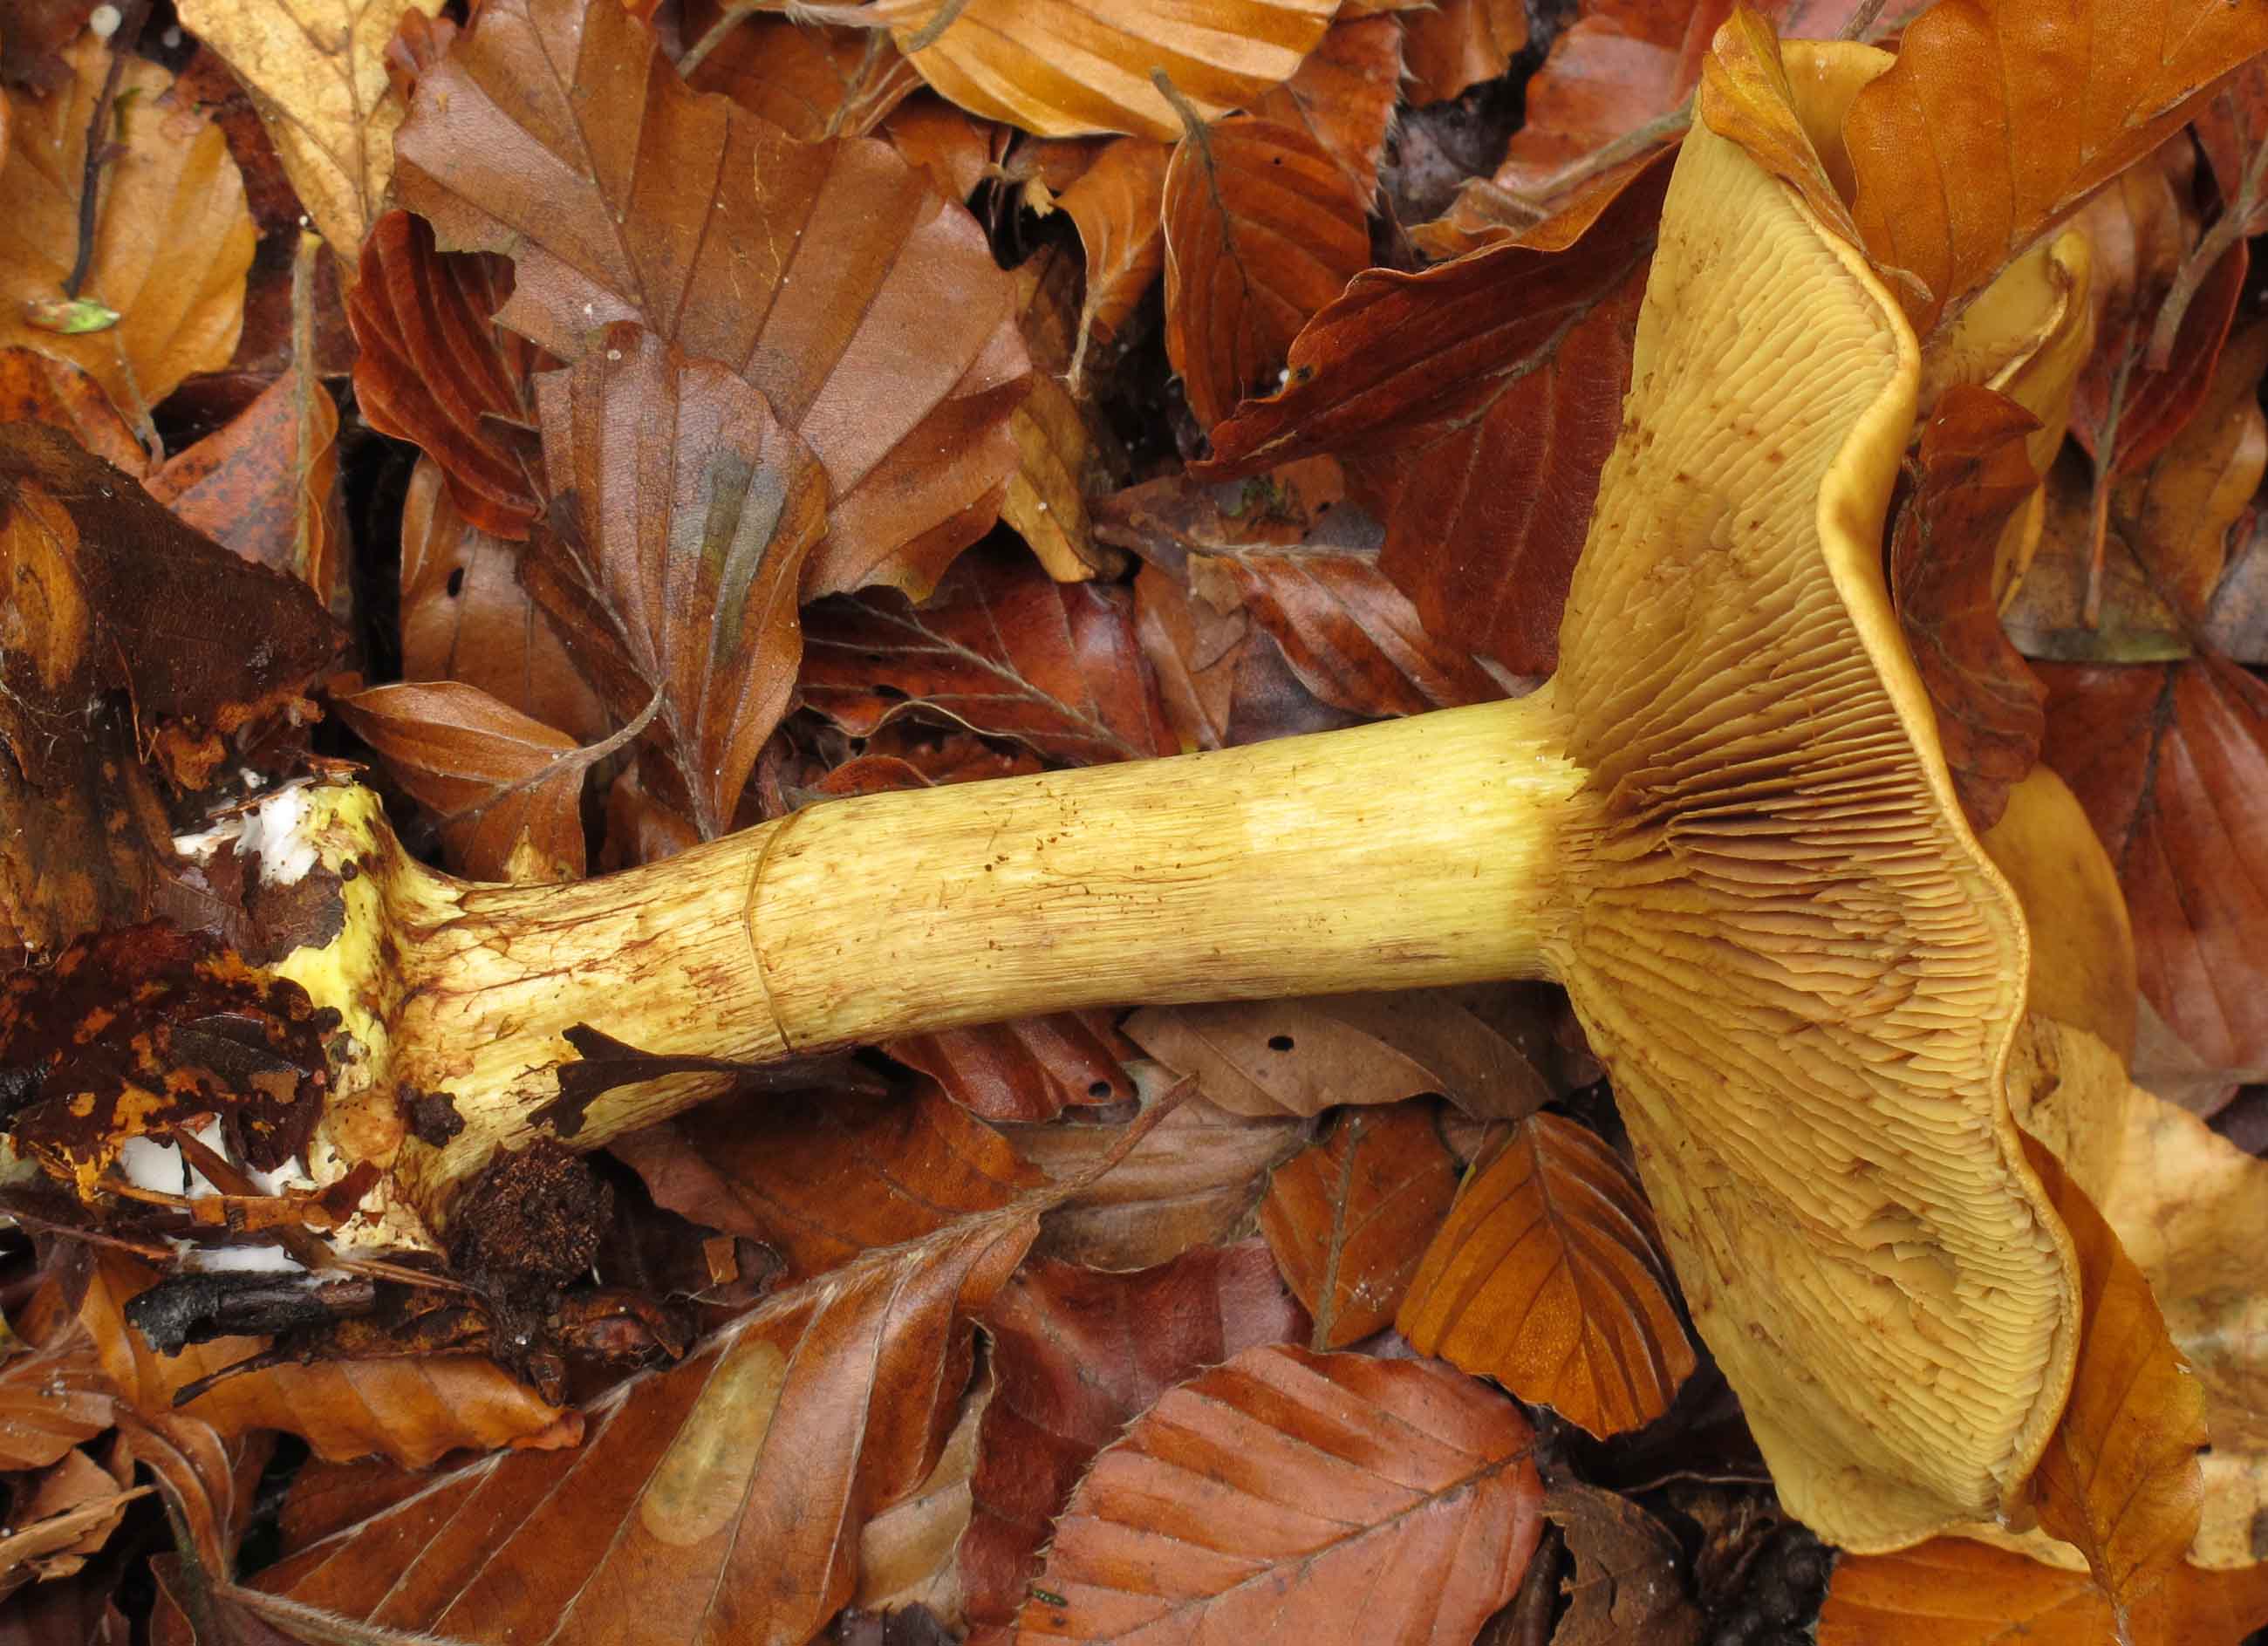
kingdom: Fungi
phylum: Basidiomycota
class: Agaricomycetes
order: Agaricales
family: Cortinariaceae
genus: Calonarius
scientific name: Calonarius citrinus
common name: citrongul slørhat
